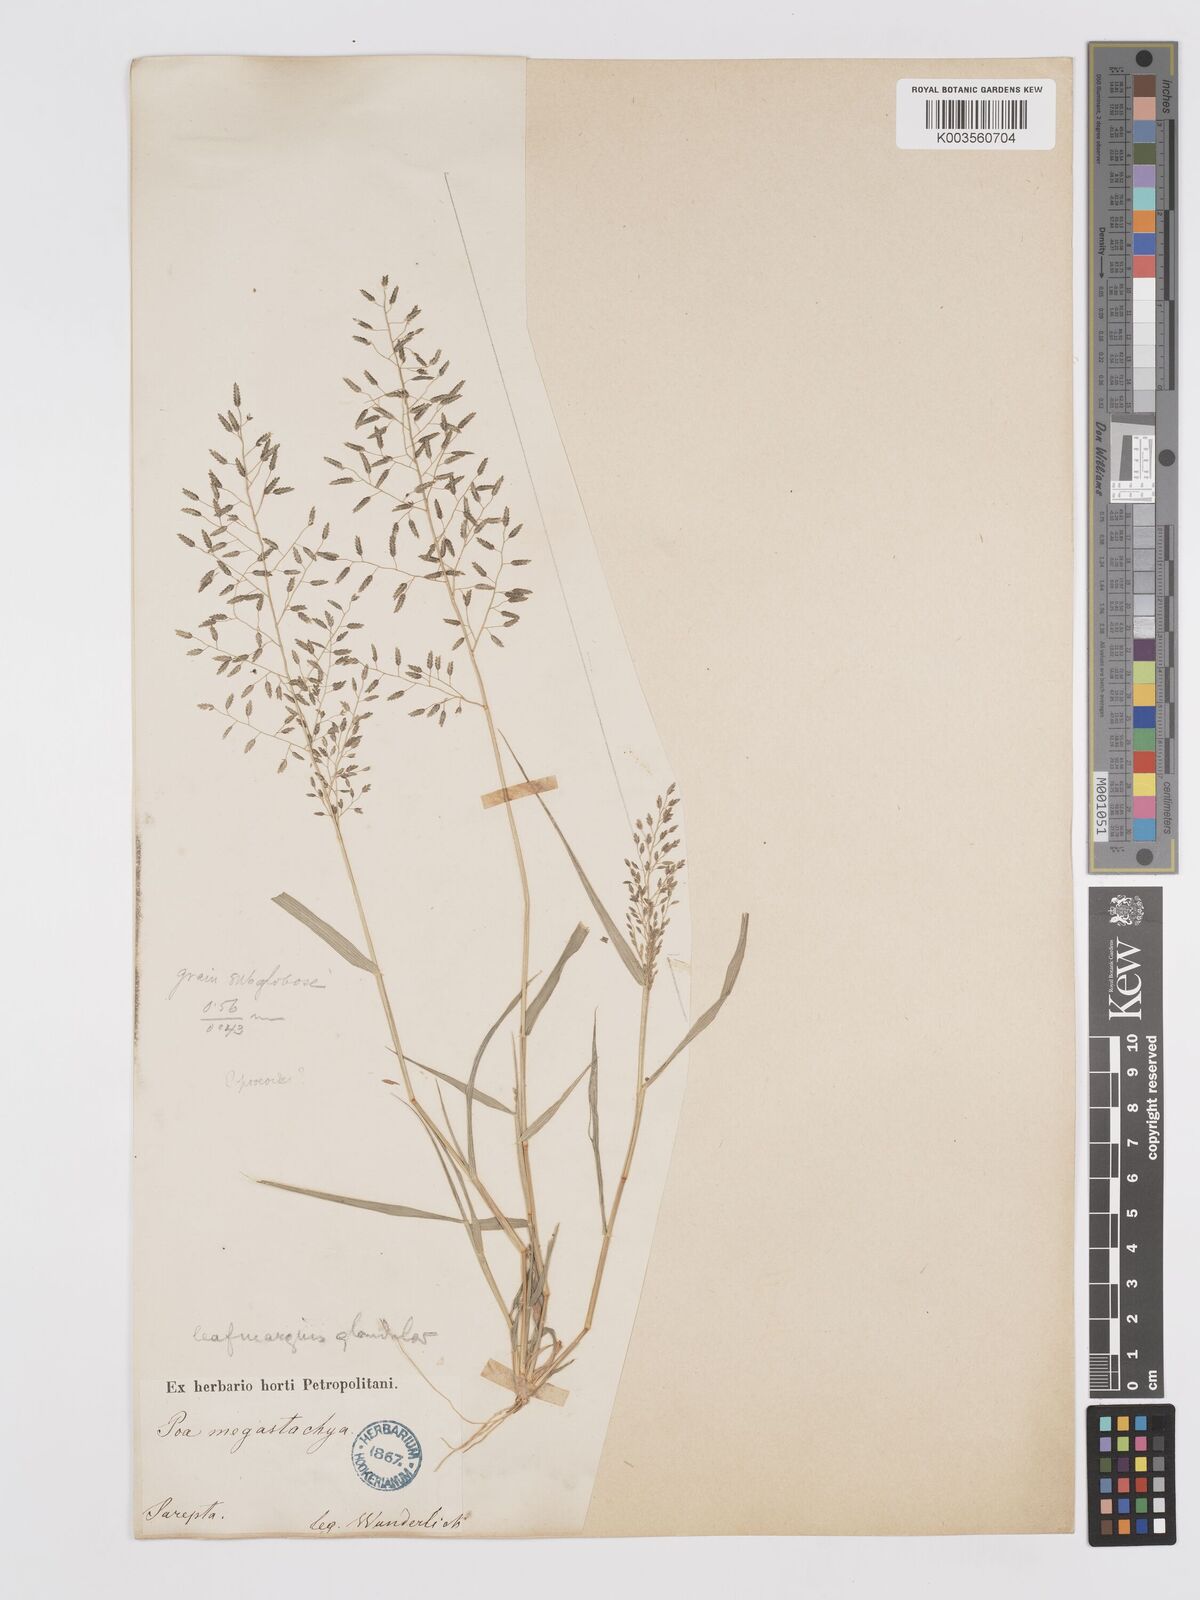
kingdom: Plantae
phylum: Tracheophyta
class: Liliopsida
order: Poales
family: Poaceae
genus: Eragrostis
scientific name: Eragrostis minor
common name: Small love-grass
